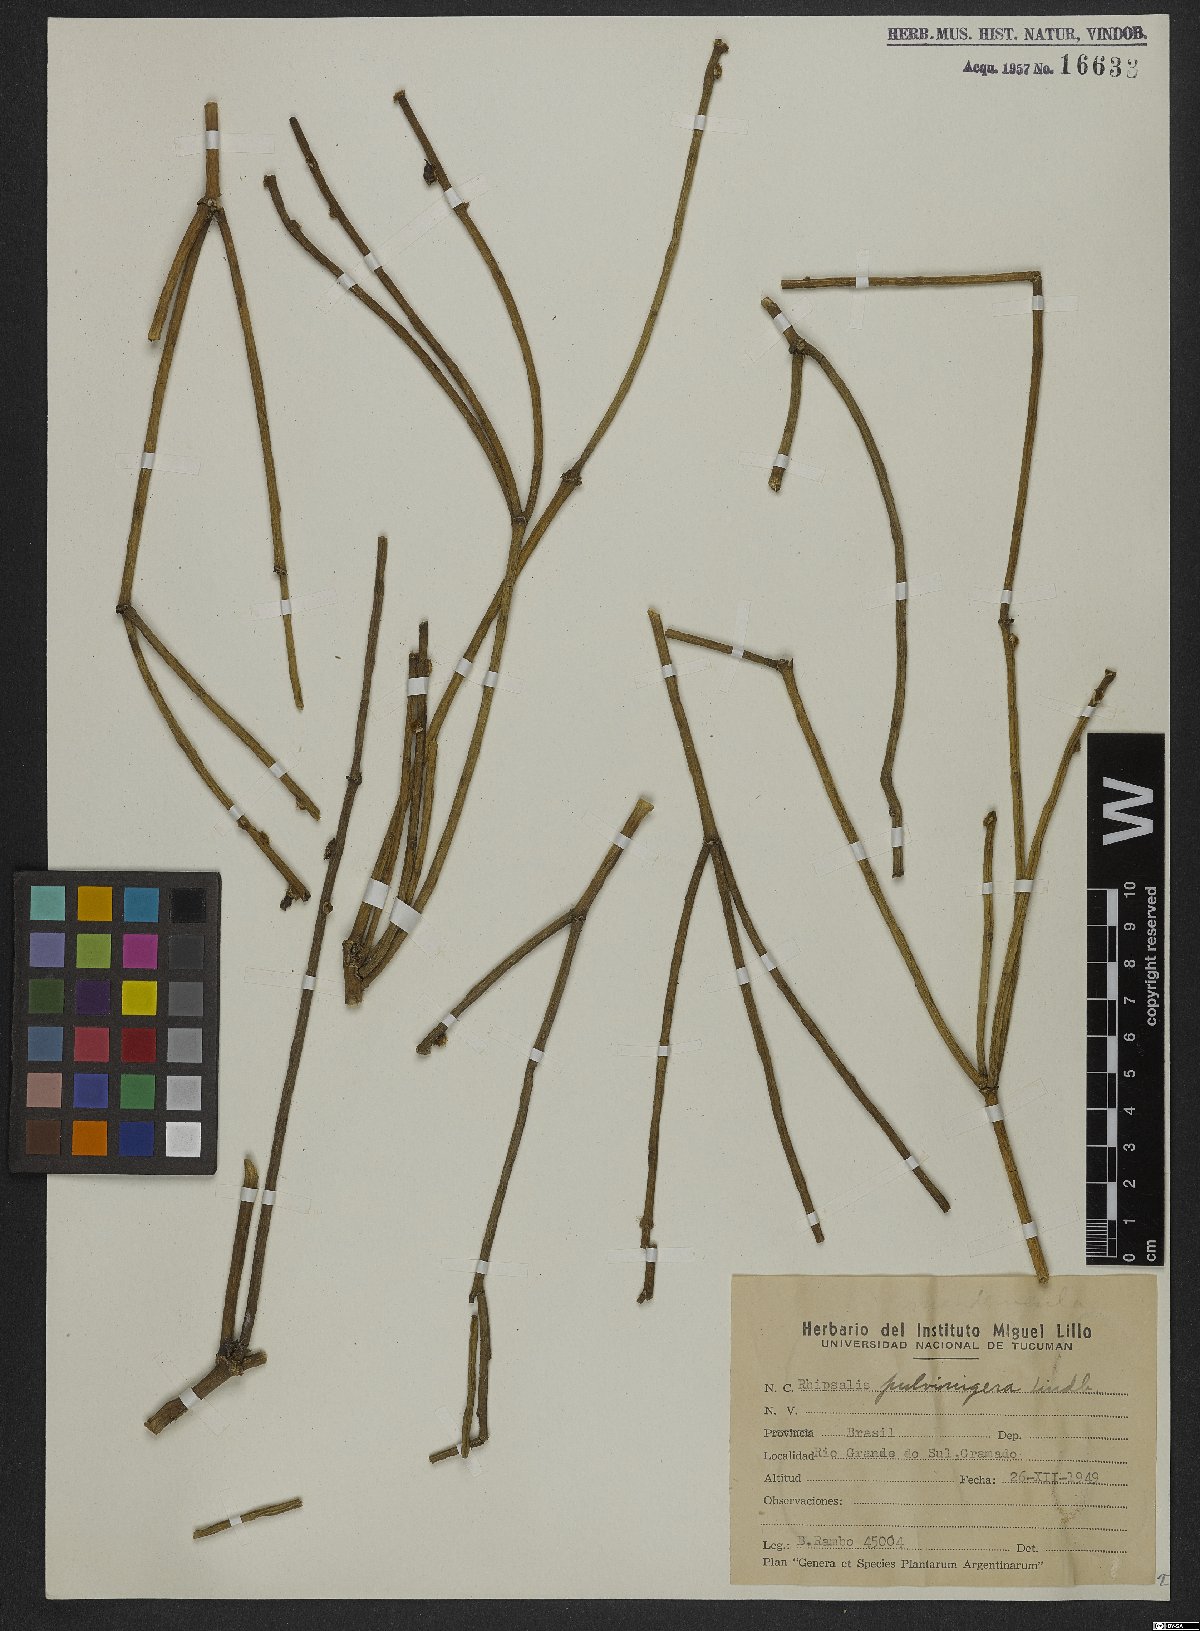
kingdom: Plantae
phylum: Tracheophyta
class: Magnoliopsida
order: Caryophyllales
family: Cactaceae
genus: Rhipsalis
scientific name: Rhipsalis floccosa
